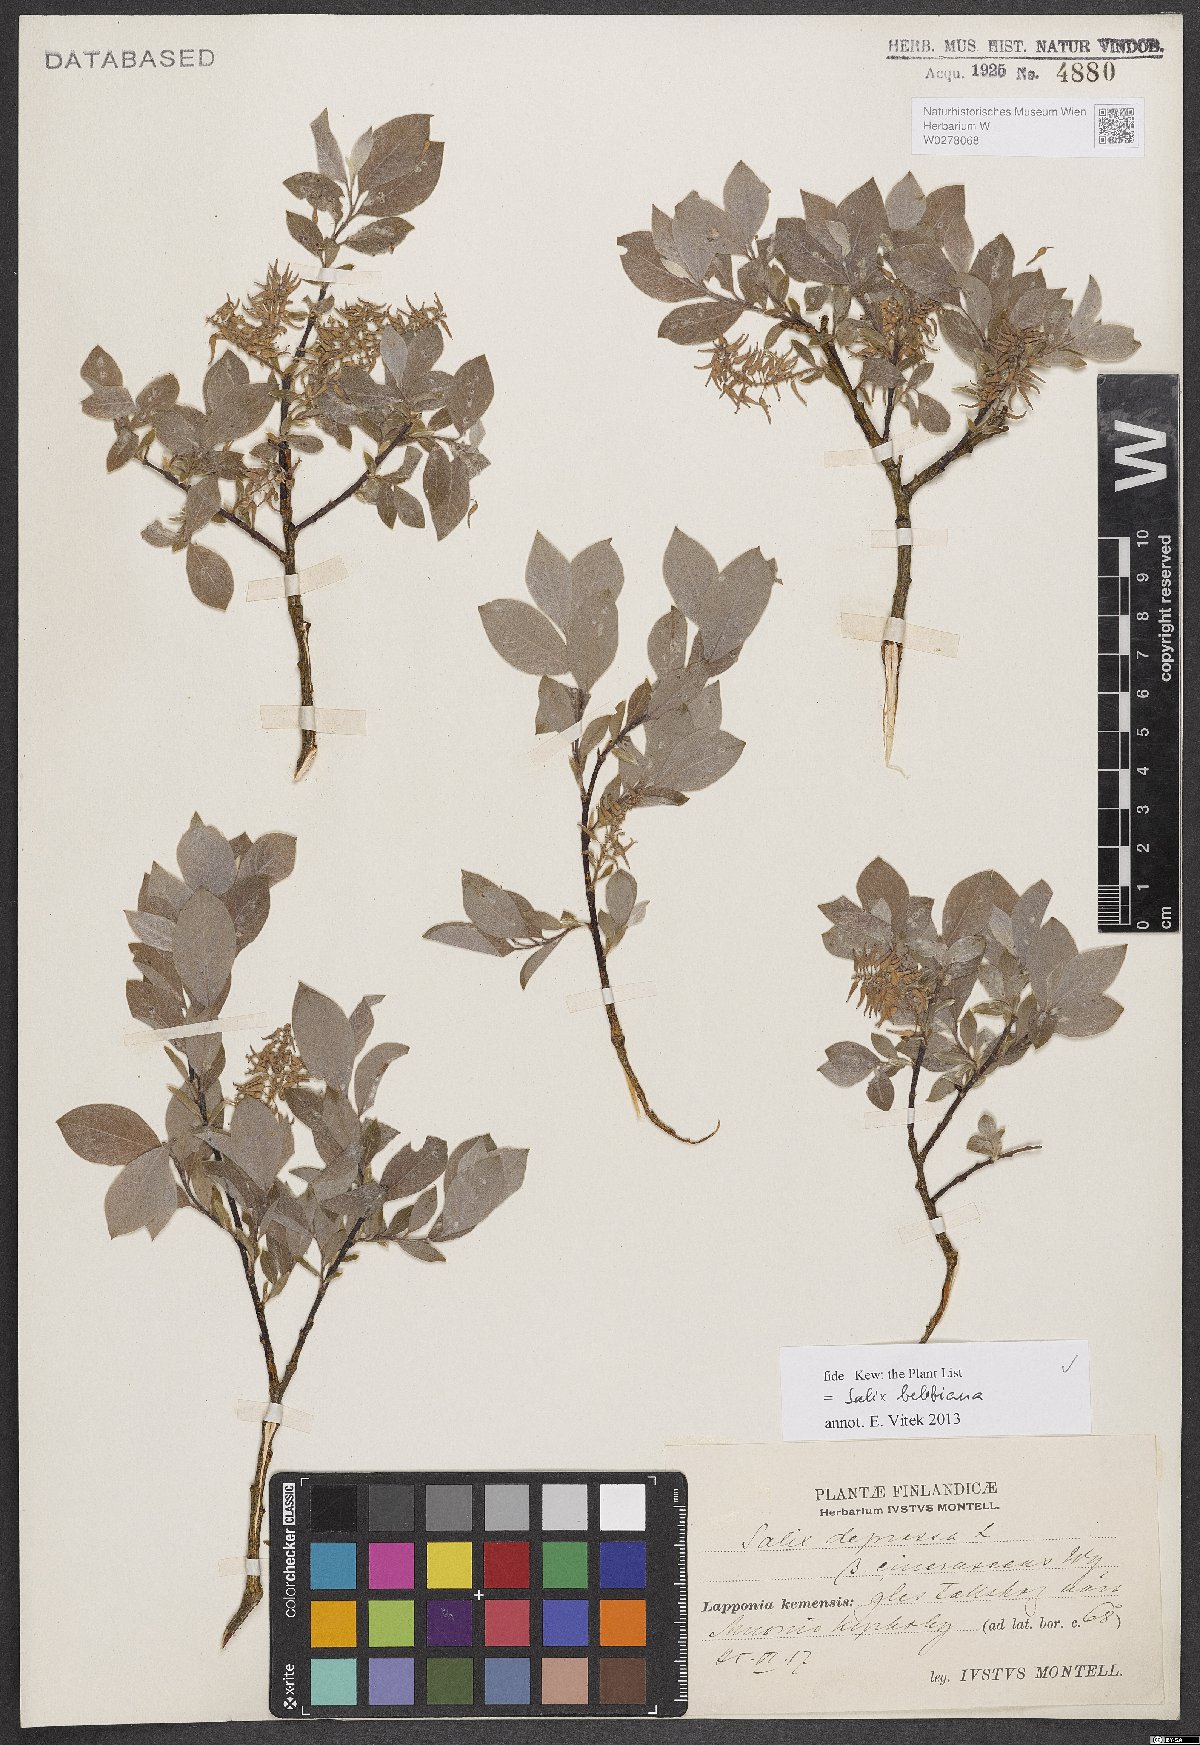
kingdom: Plantae
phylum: Tracheophyta
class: Magnoliopsida
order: Malpighiales
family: Salicaceae
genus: Salix
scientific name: Salix bebbiana
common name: Bebb's willow
